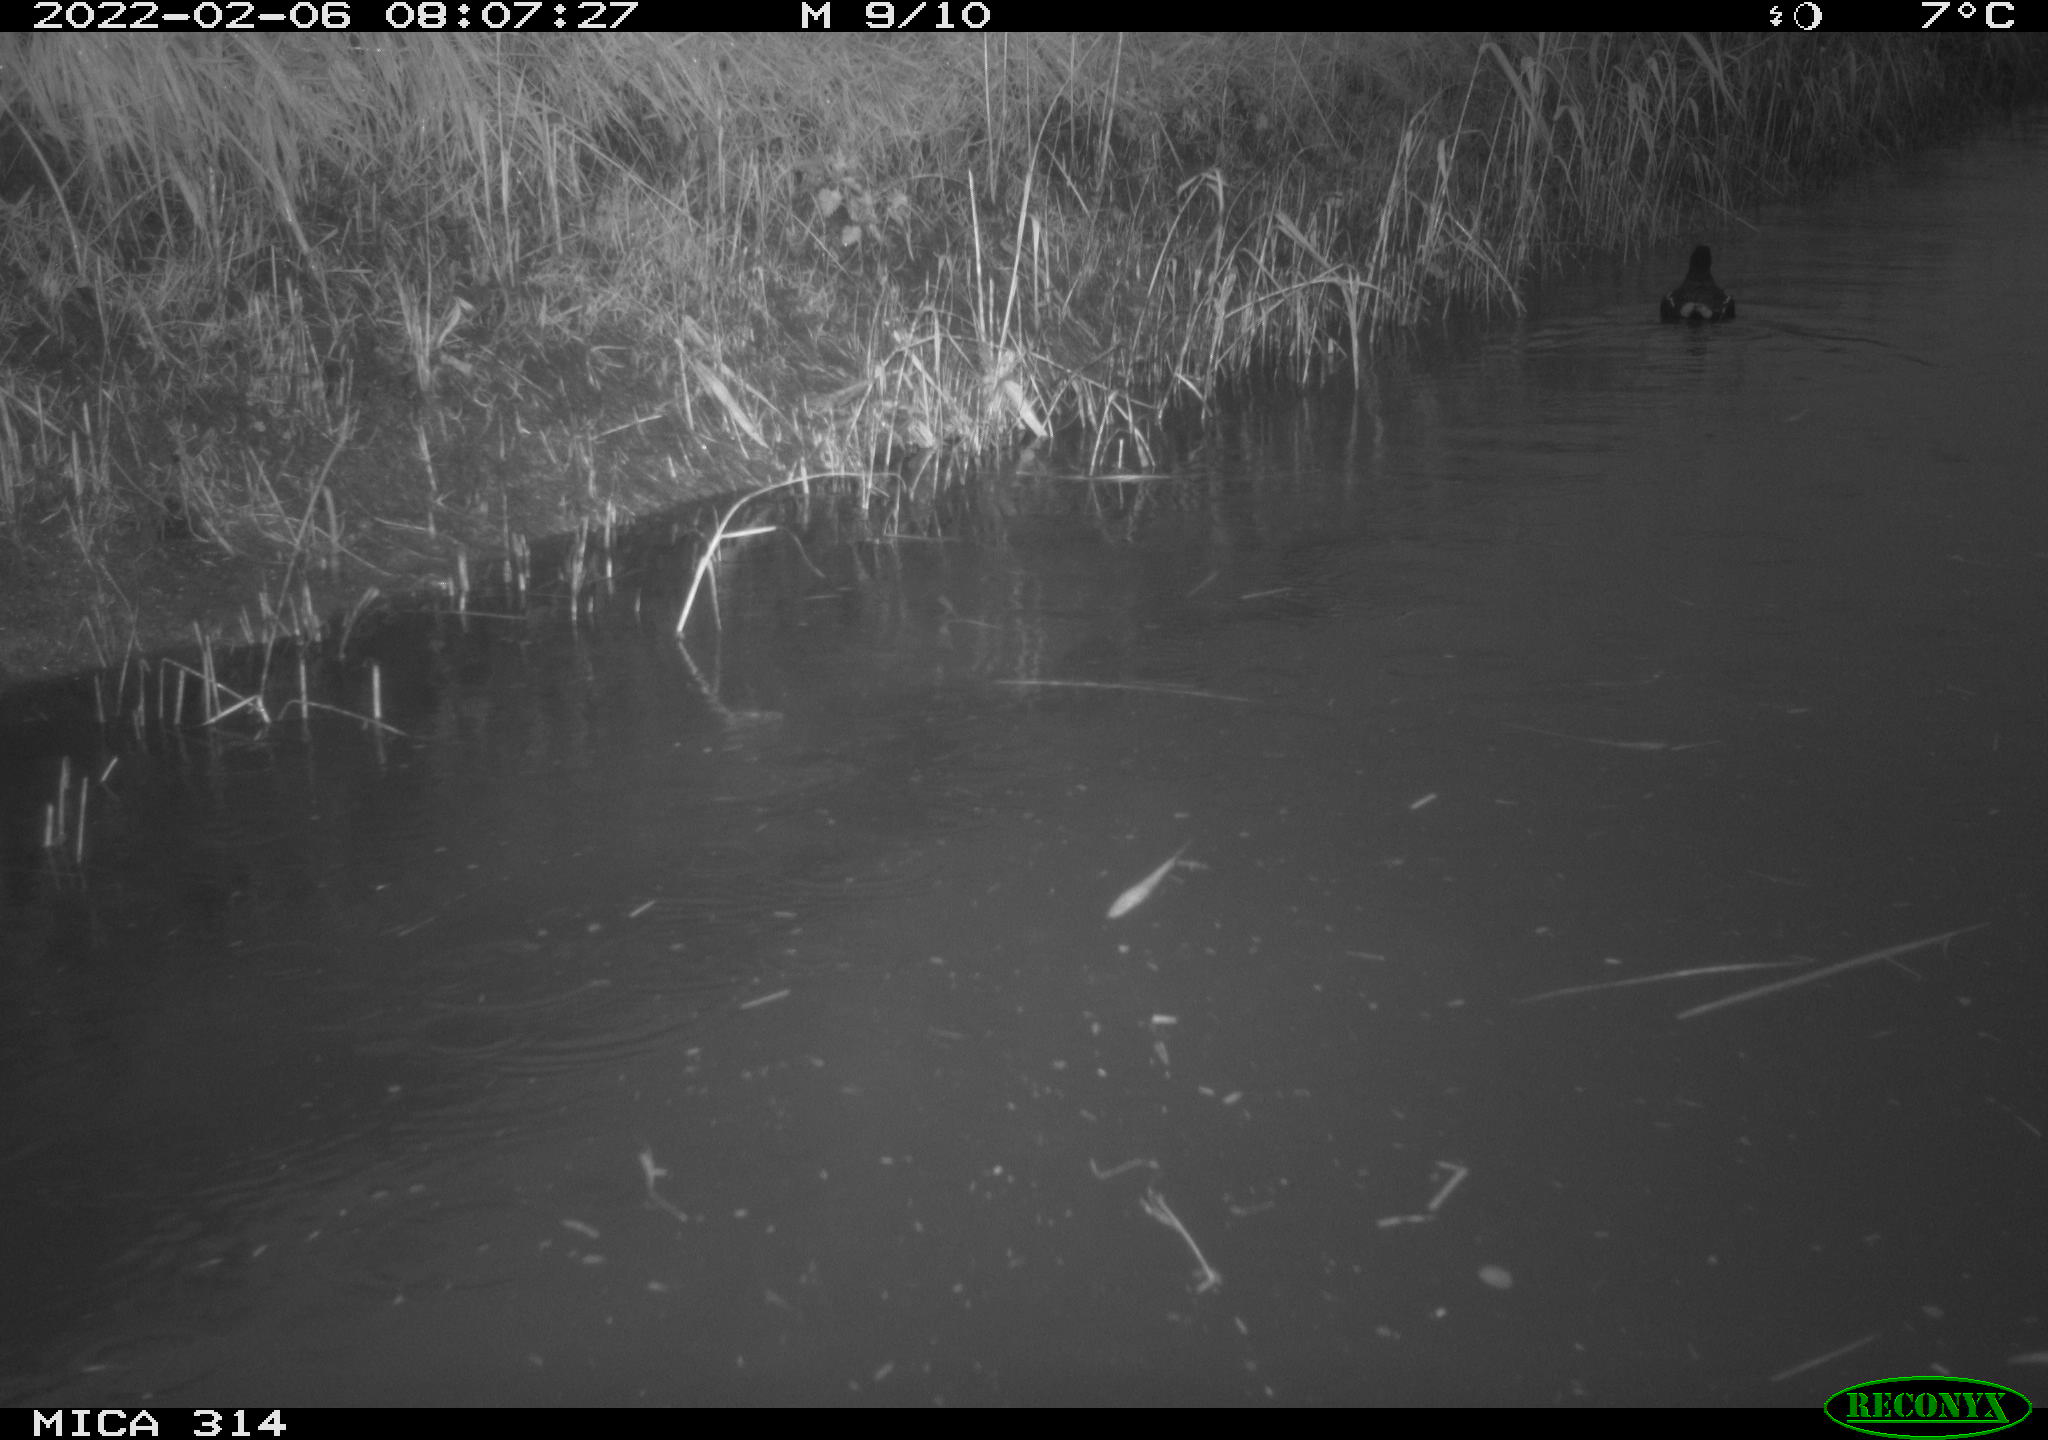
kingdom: Animalia
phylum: Chordata
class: Aves
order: Gruiformes
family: Rallidae
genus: Gallinula
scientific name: Gallinula chloropus
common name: Common moorhen
